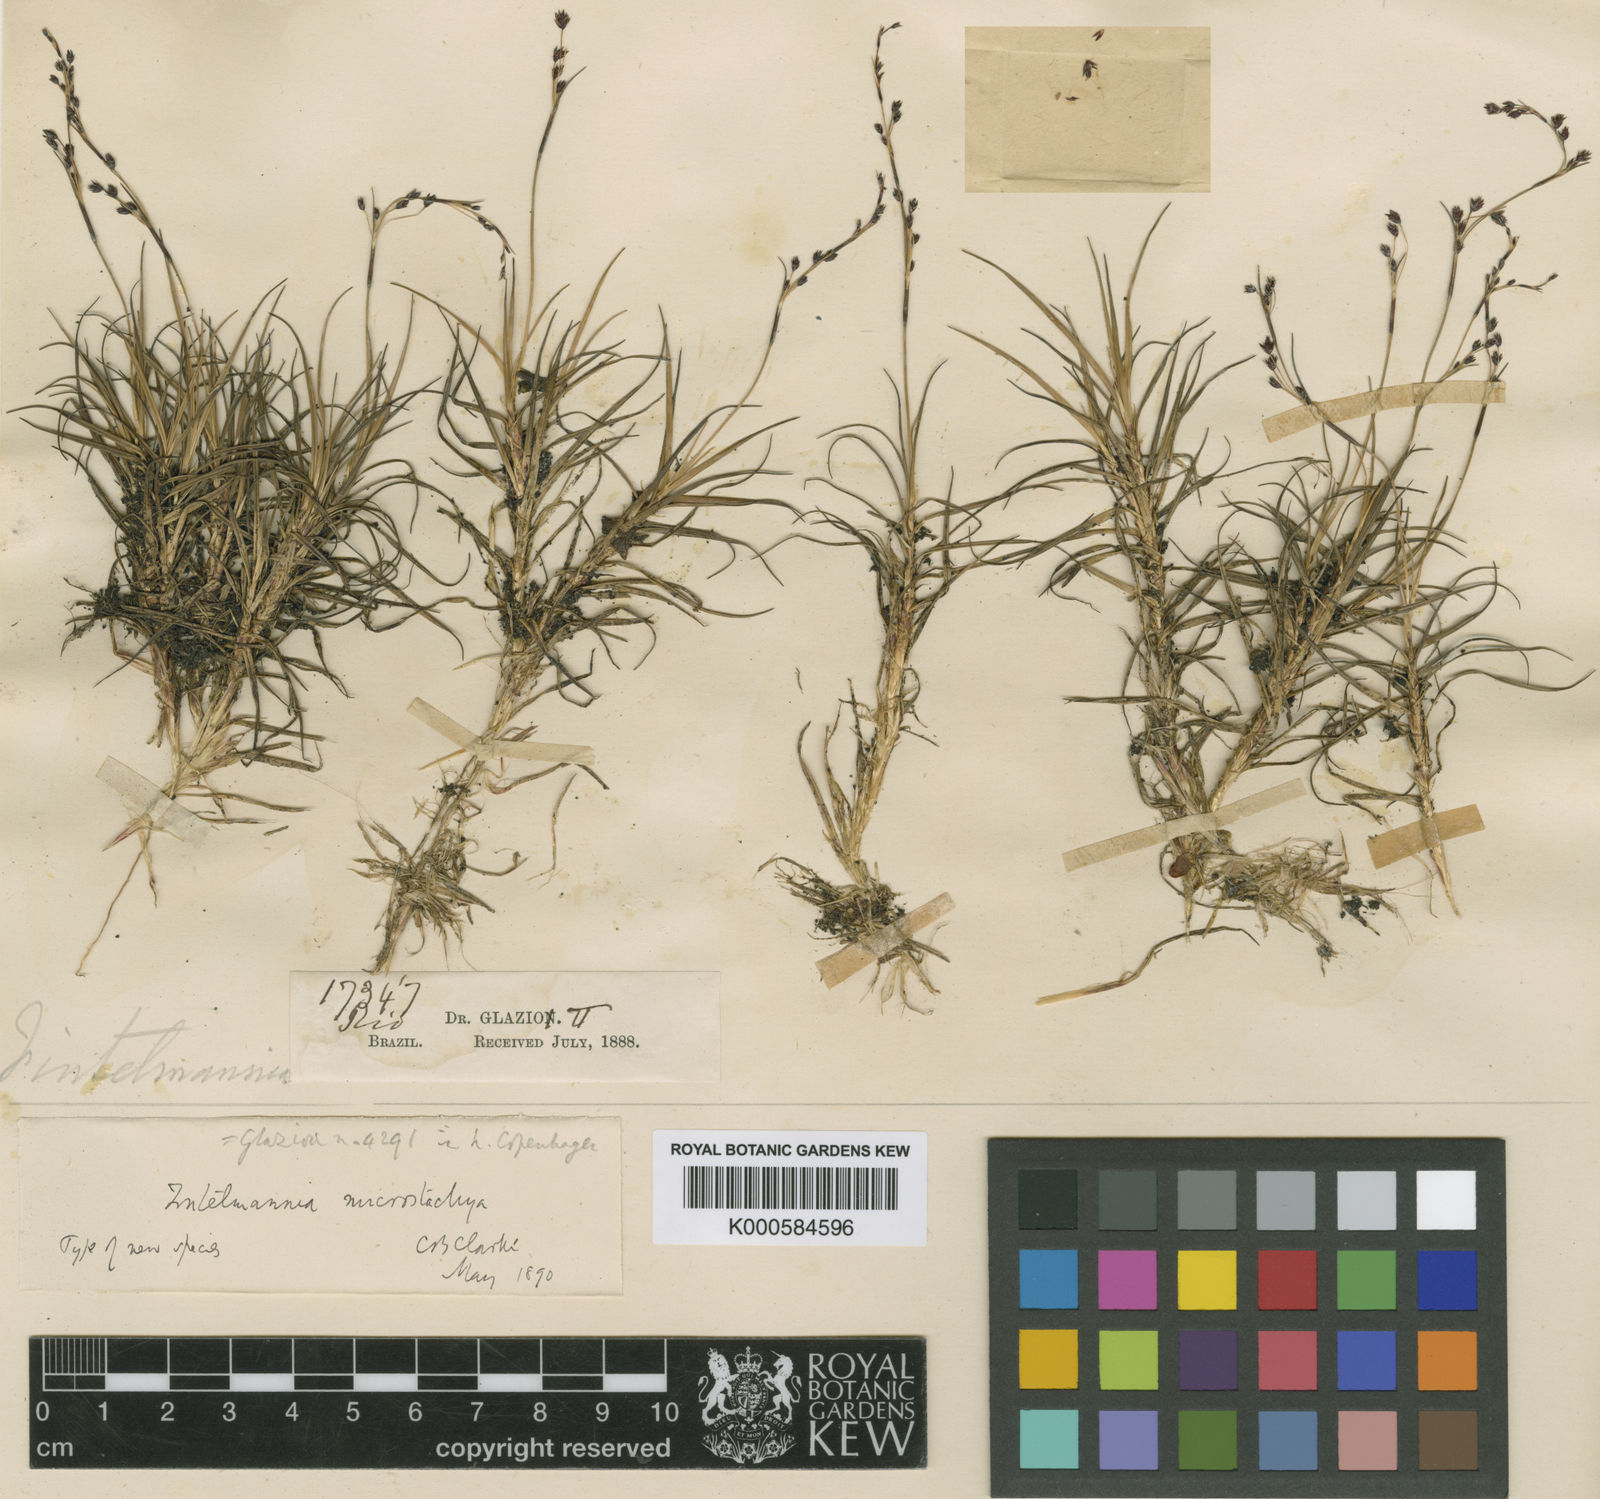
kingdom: Plantae
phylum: Tracheophyta
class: Liliopsida
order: Poales
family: Cyperaceae
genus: Trilepis
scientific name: Trilepis microstachya
